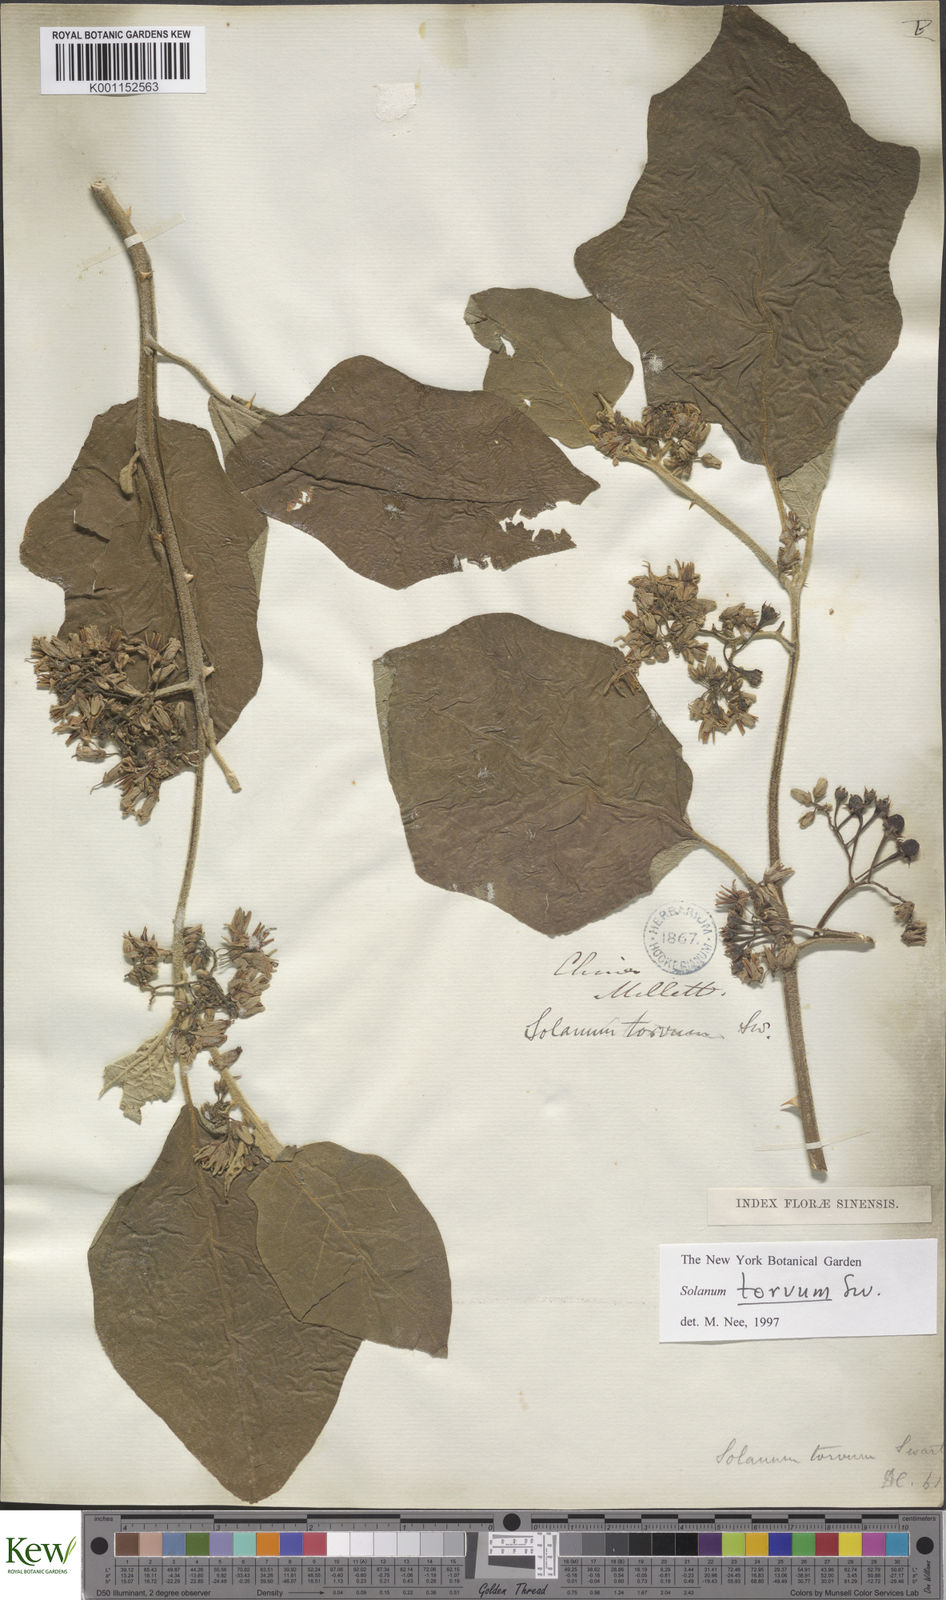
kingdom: Plantae
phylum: Tracheophyta
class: Magnoliopsida
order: Solanales
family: Solanaceae
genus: Solanum
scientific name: Solanum torvum
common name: Turkey berry
